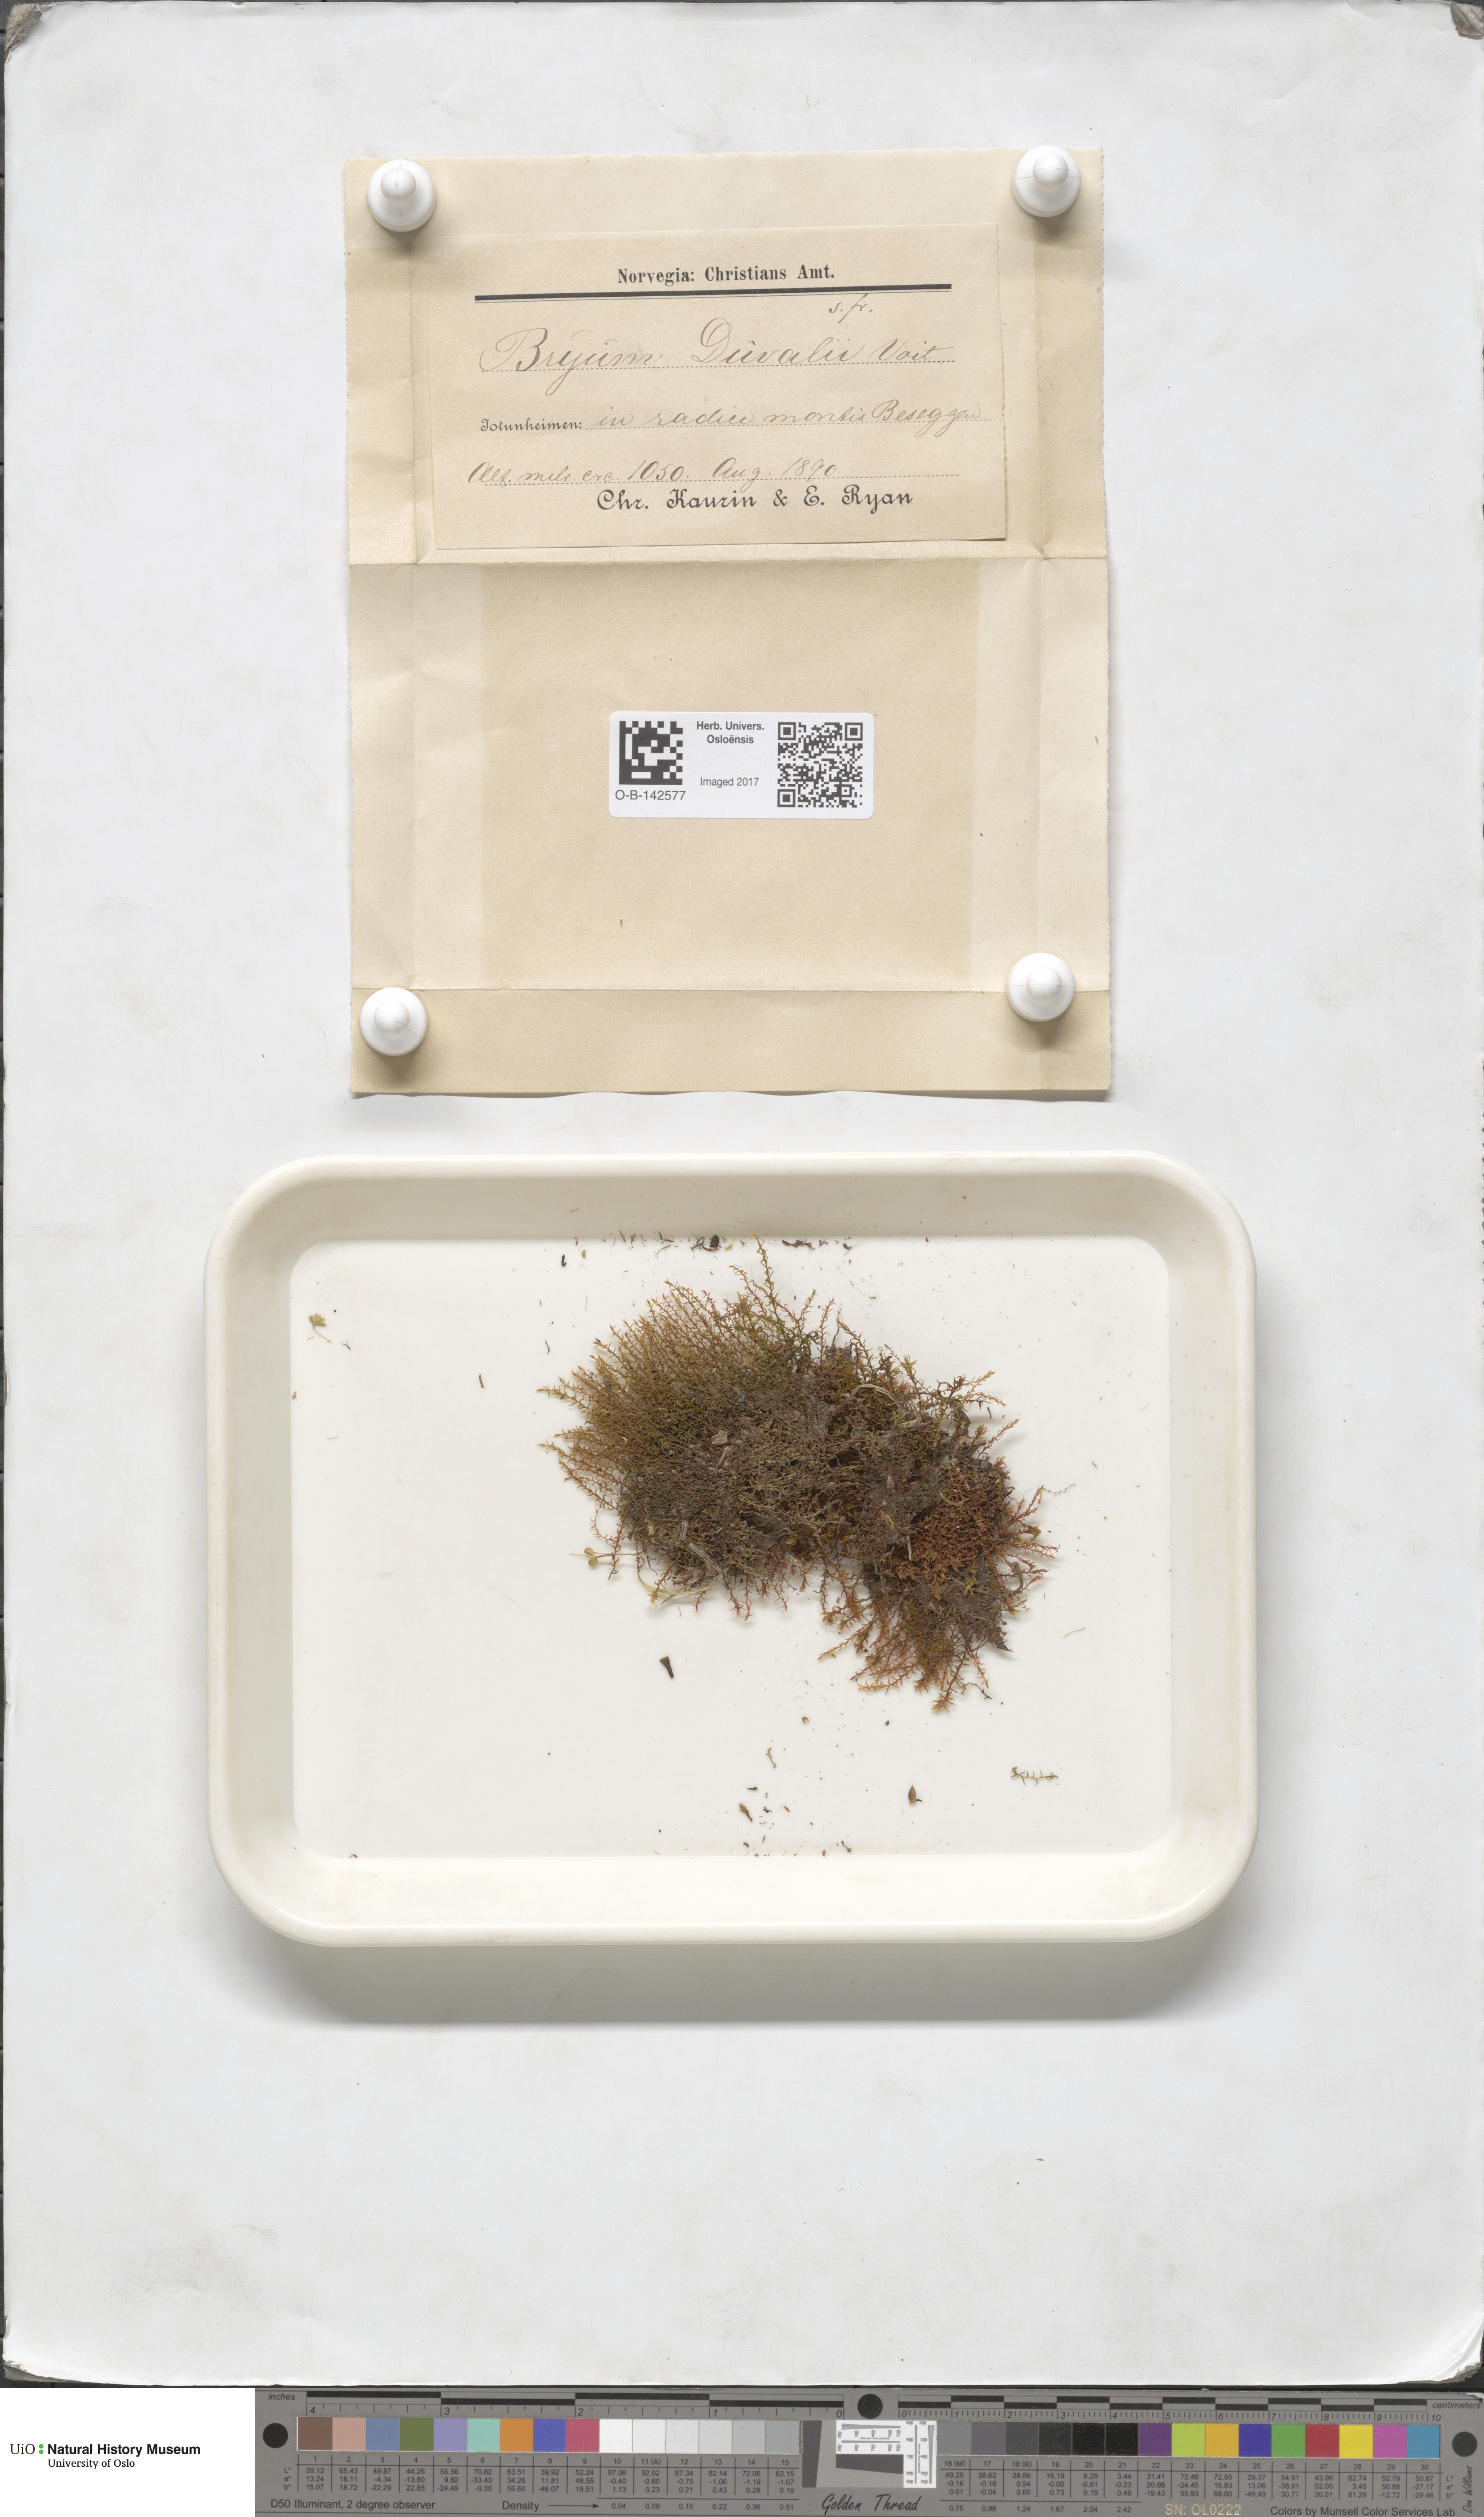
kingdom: Plantae
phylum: Bryophyta
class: Bryopsida
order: Bryales
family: Bryaceae
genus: Ptychostomum
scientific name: Ptychostomum weigelii
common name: Weigel's bryum moss
